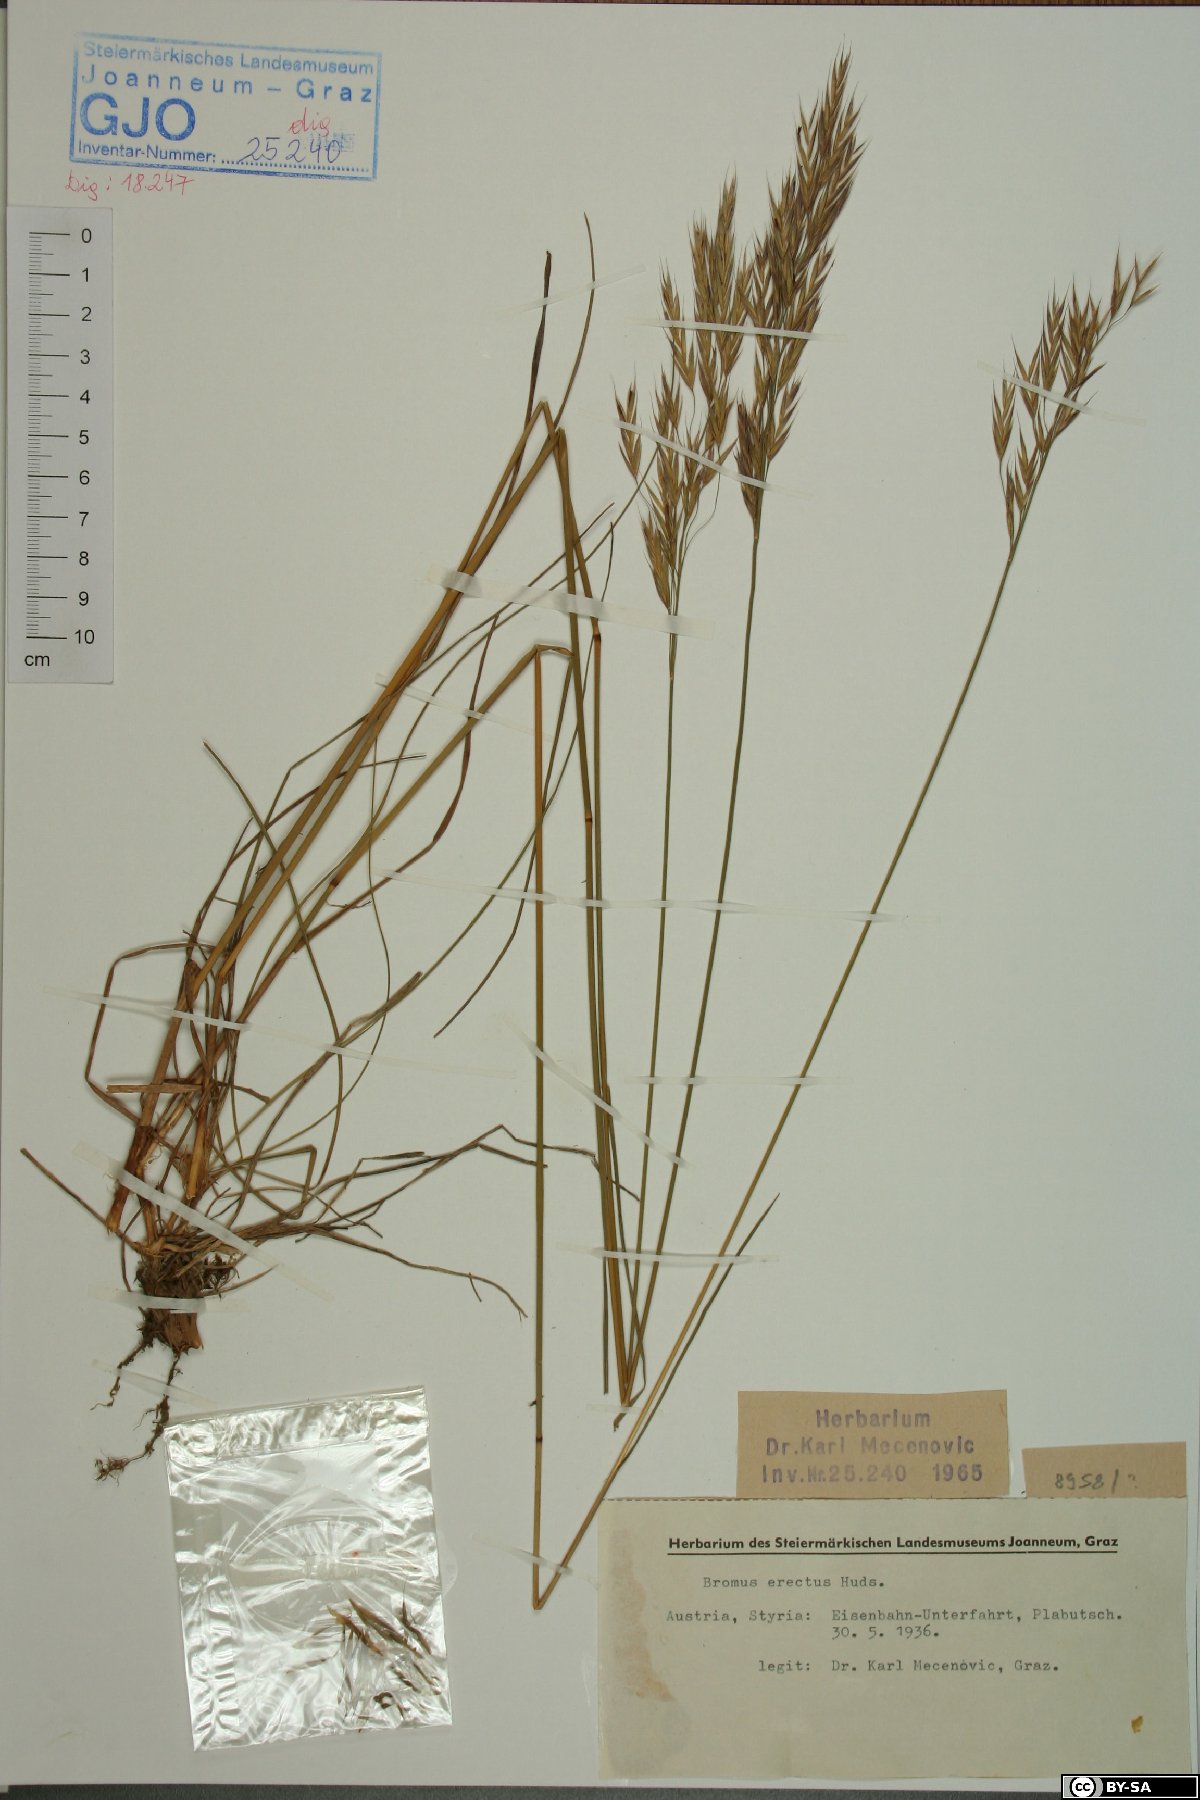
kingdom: Plantae
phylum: Tracheophyta
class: Liliopsida
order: Poales
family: Poaceae
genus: Bromus
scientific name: Bromus erectus
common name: Erect brome
